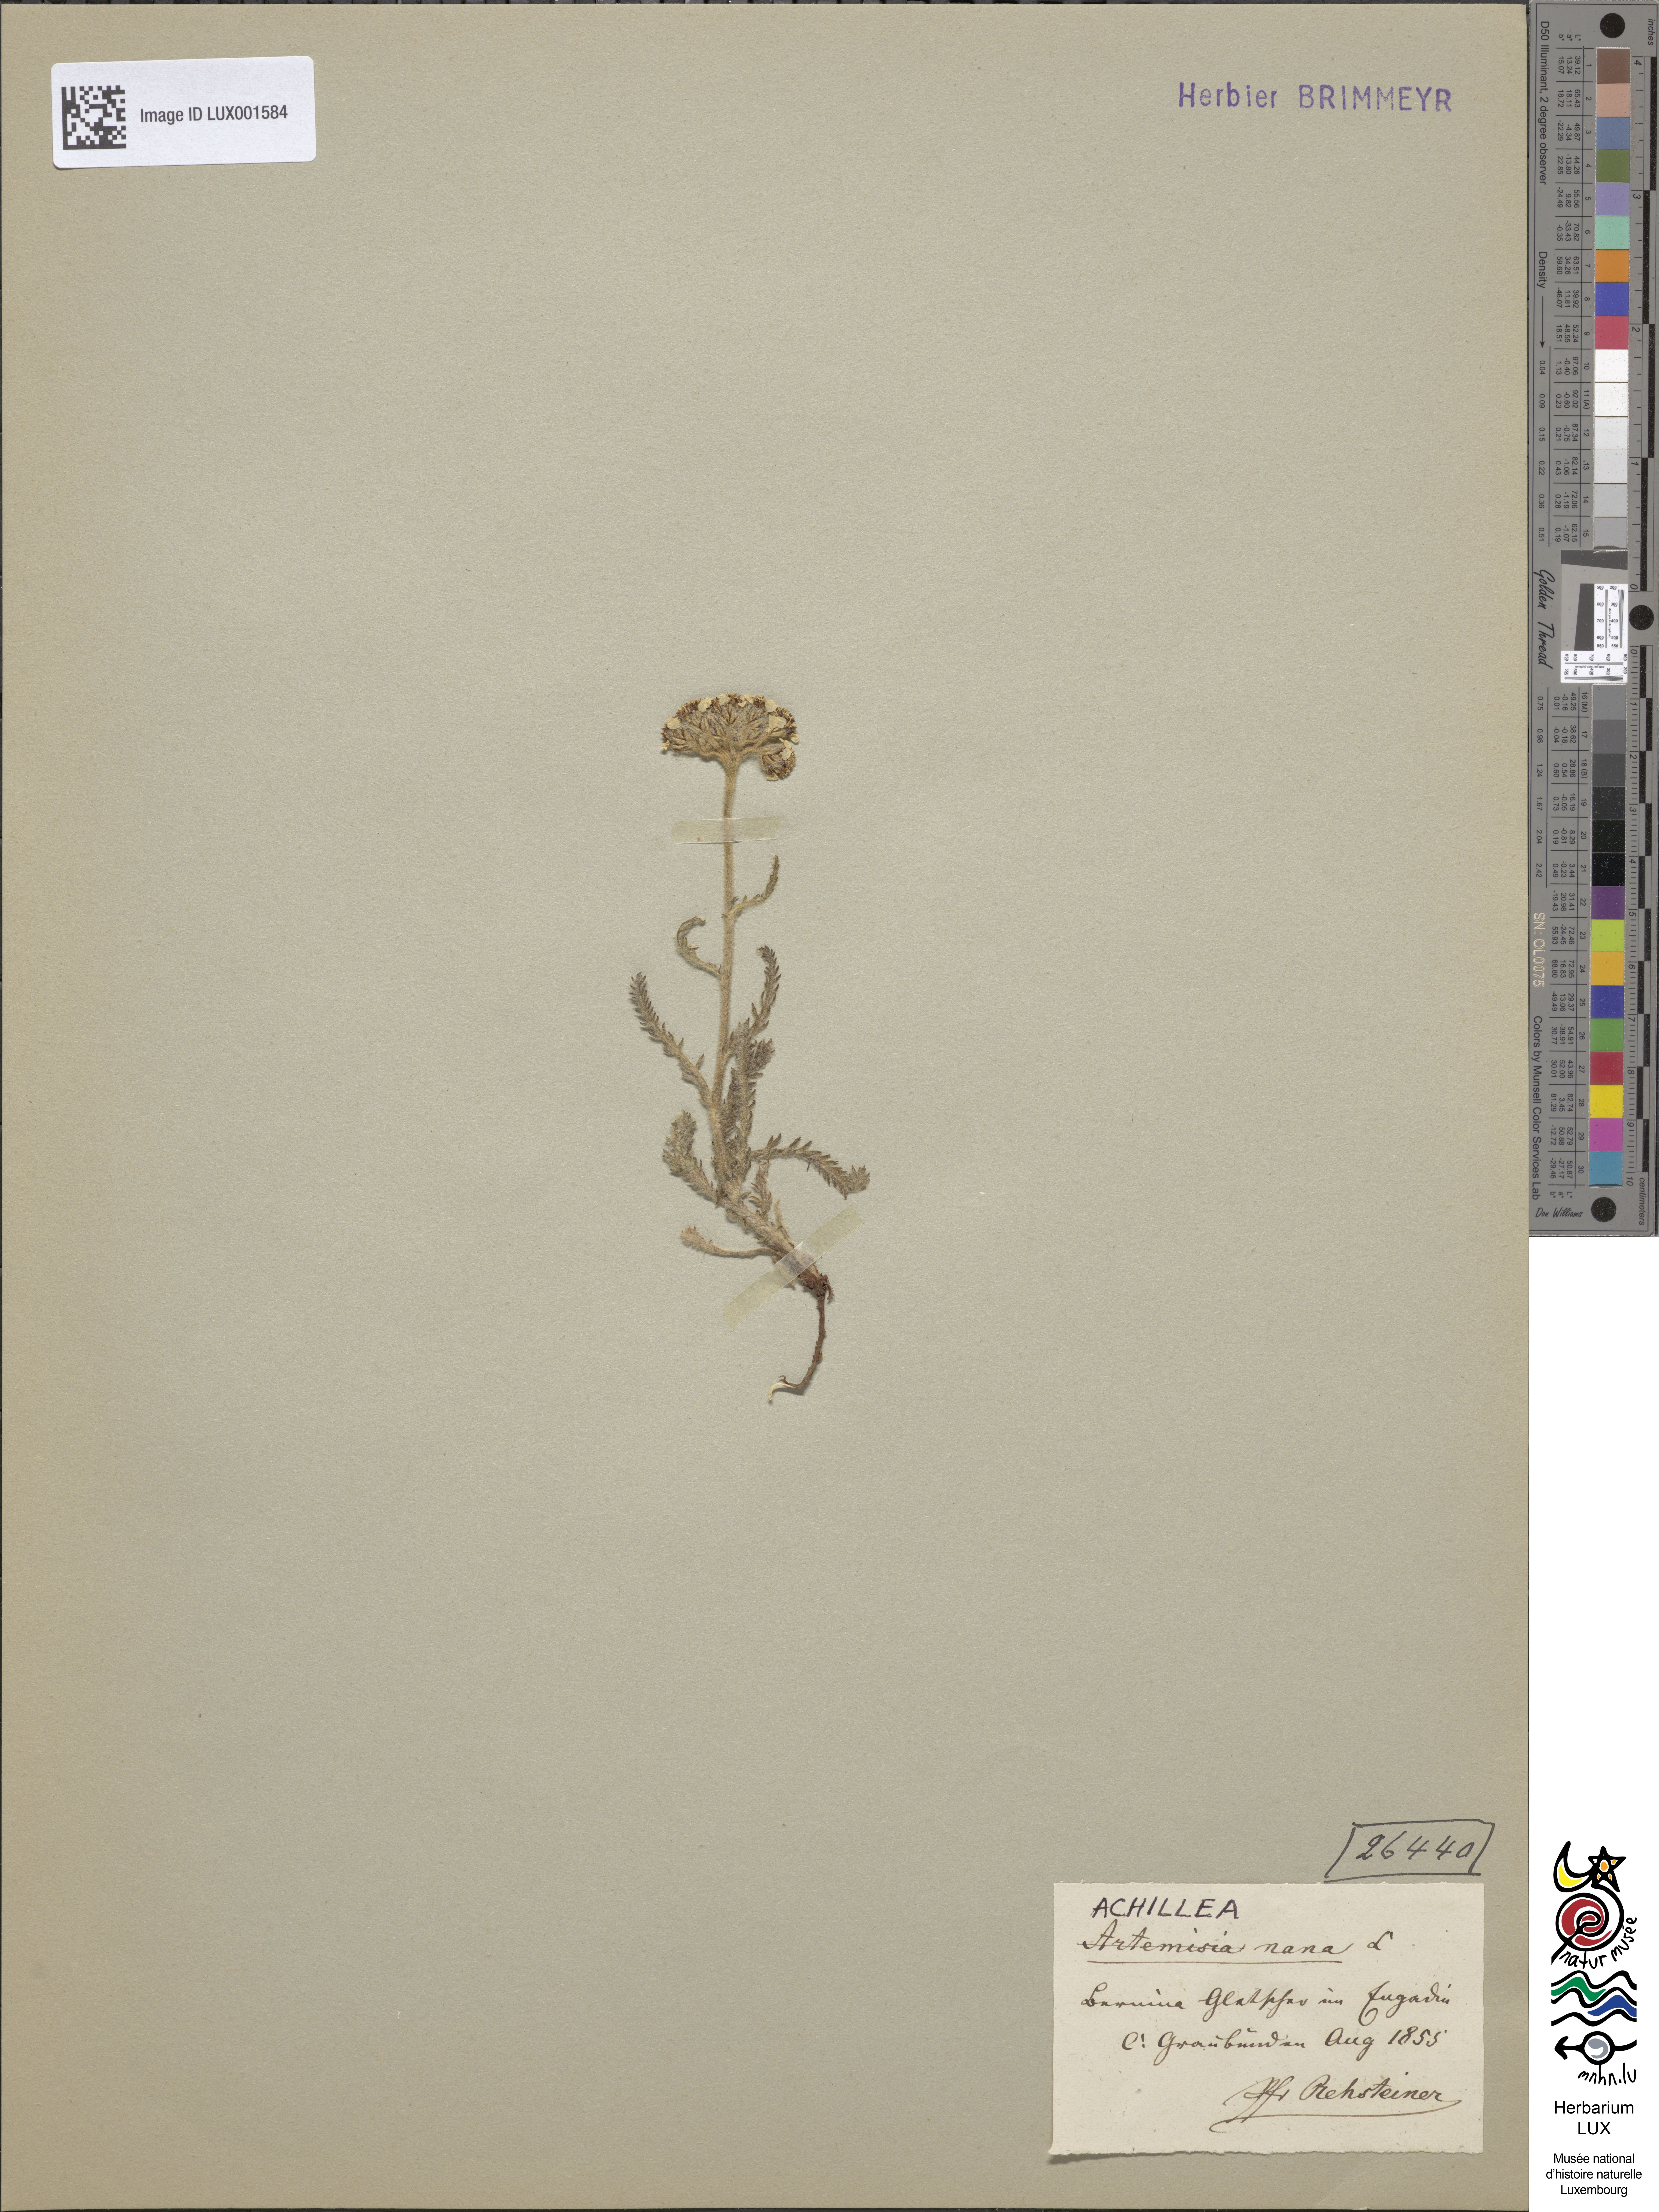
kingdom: Plantae
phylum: Tracheophyta
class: Magnoliopsida
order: Asterales
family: Asteraceae
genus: Achillea
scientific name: Achillea nana
